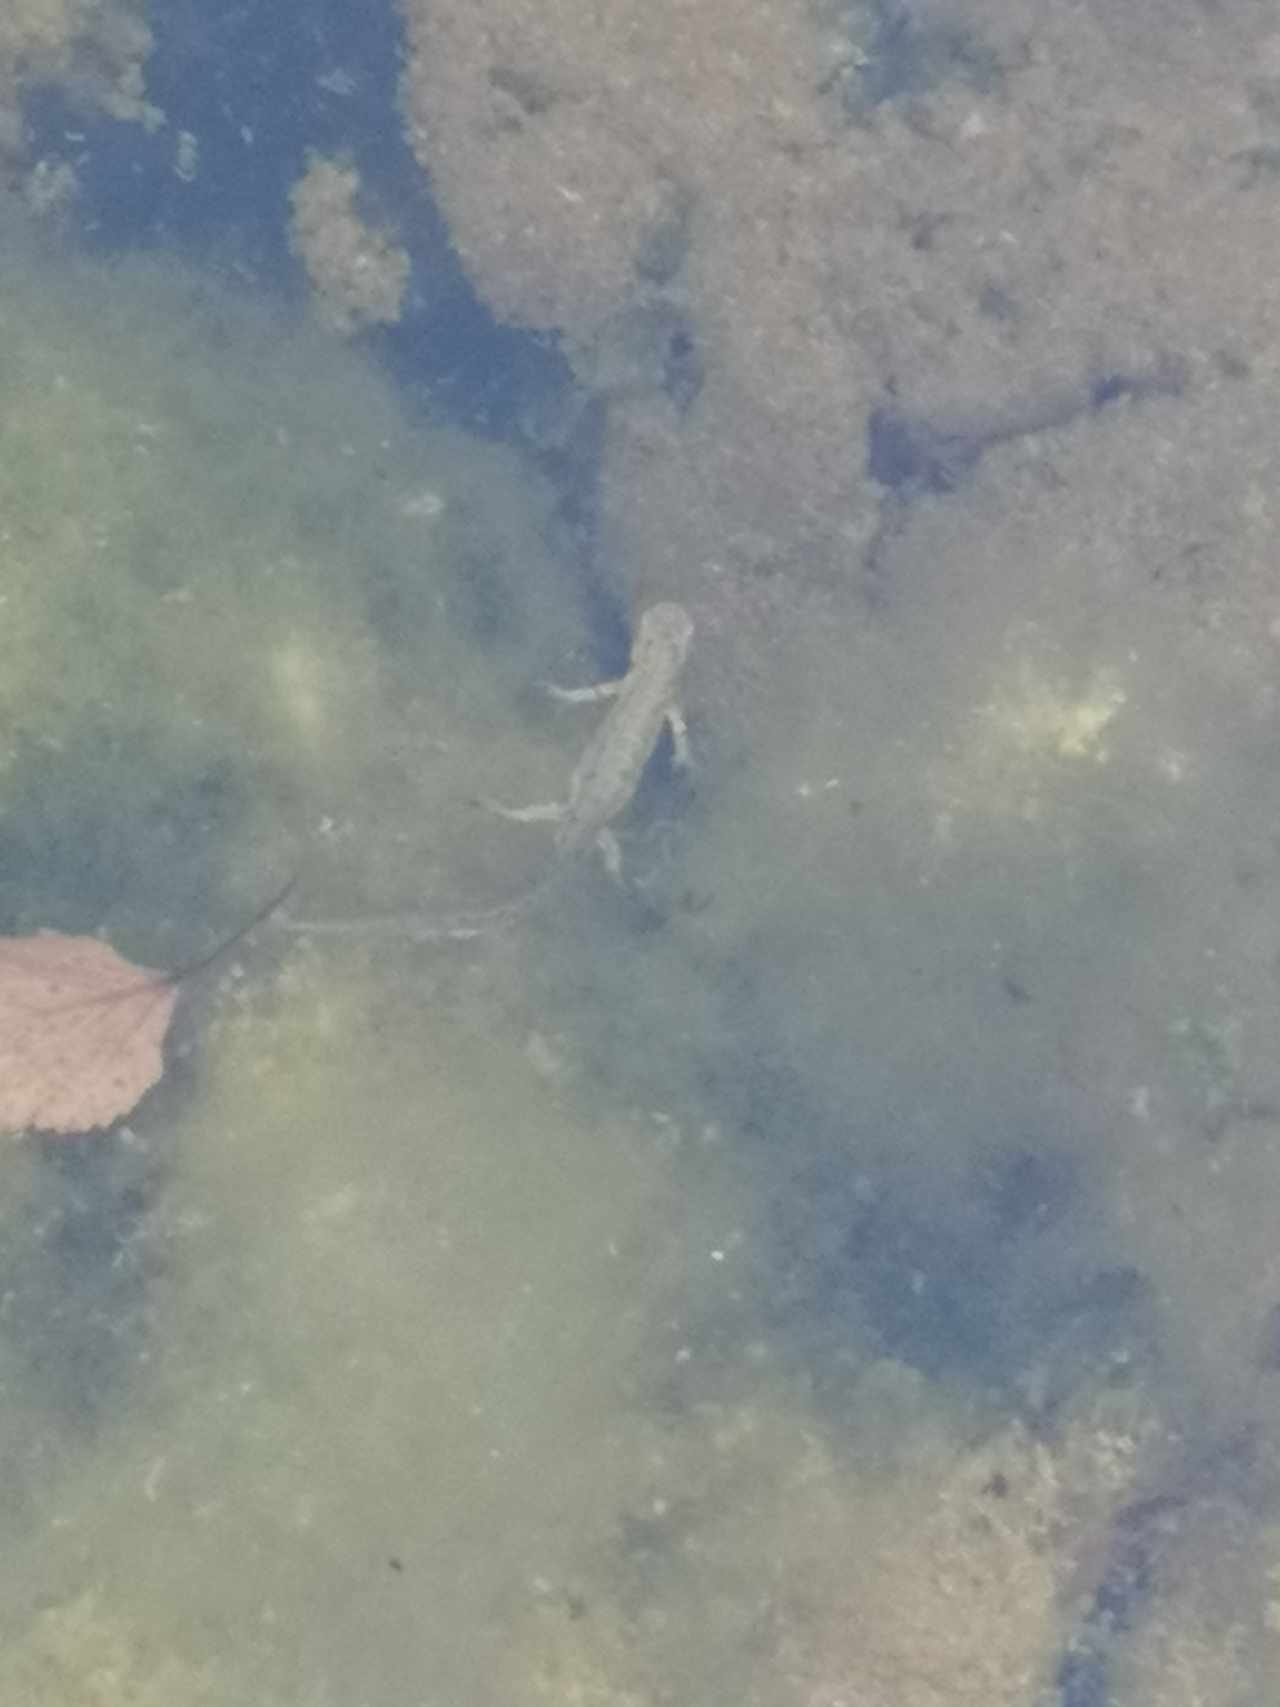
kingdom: Animalia
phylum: Chordata
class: Amphibia
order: Caudata
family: Salamandridae
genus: Lissotriton
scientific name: Lissotriton vulgaris
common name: Lille vandsalamander
